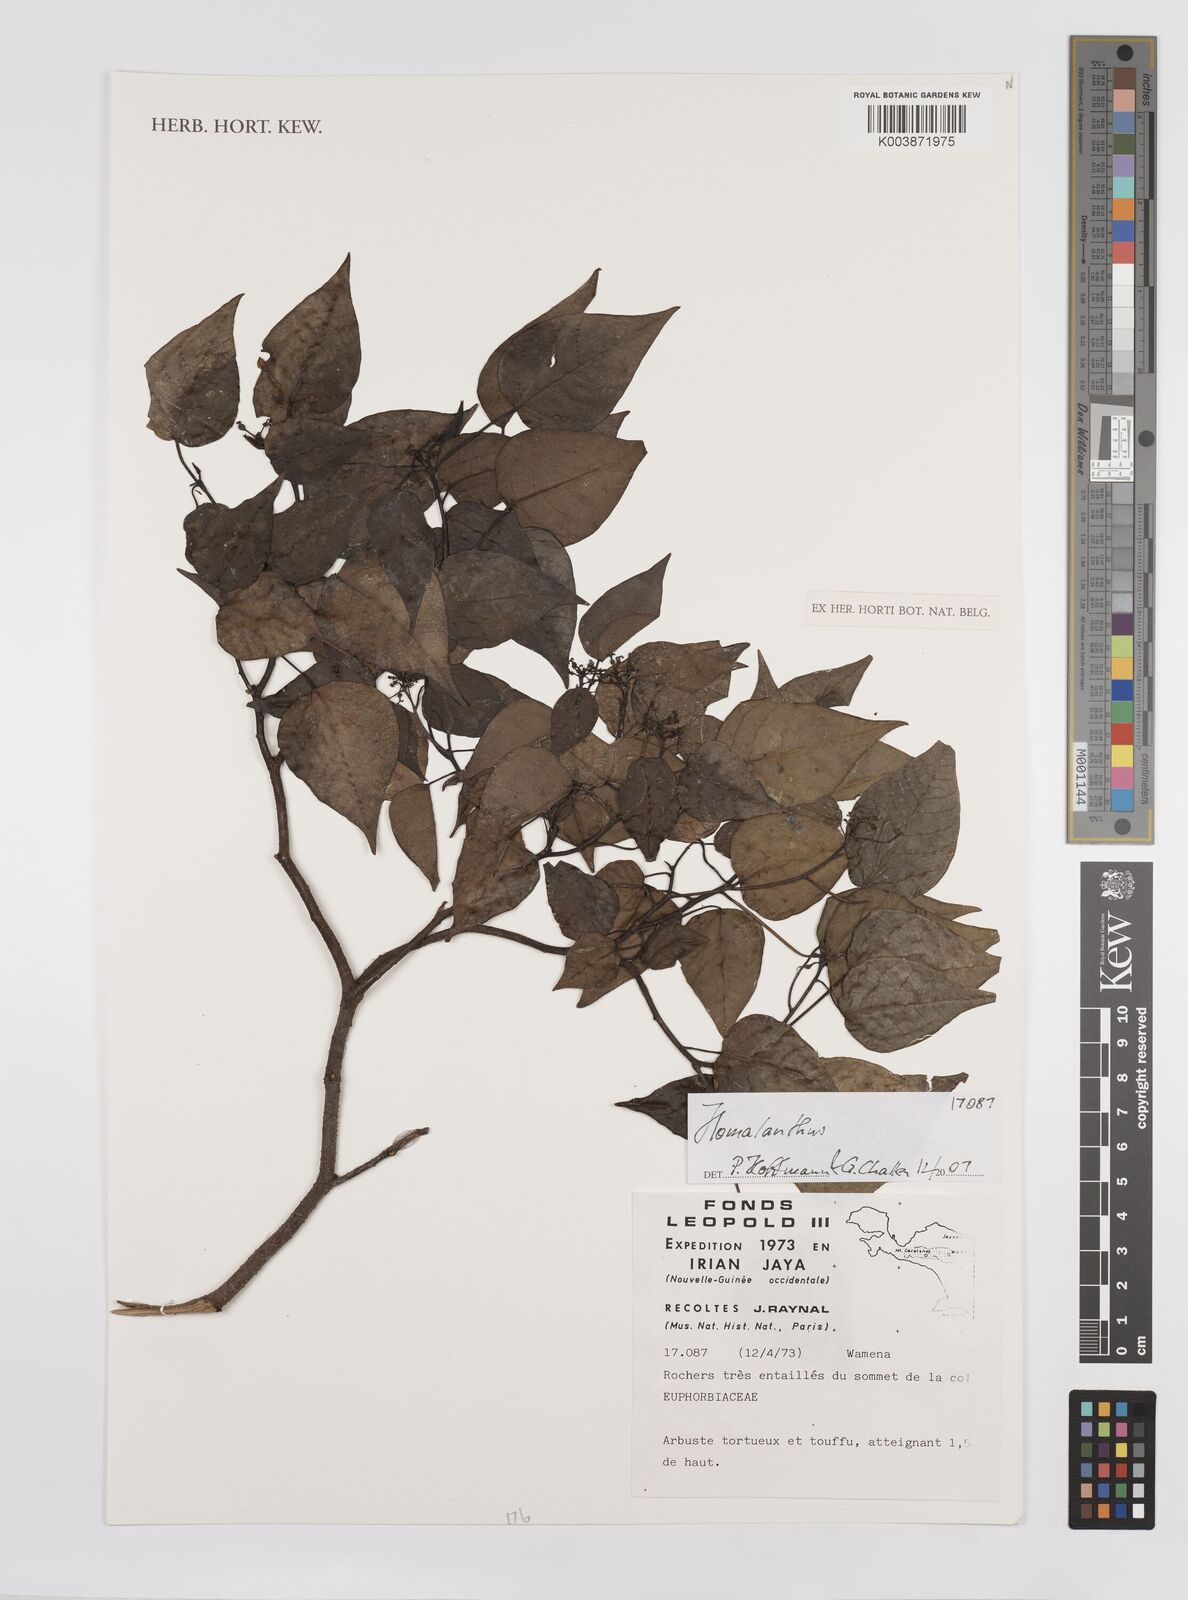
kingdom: Plantae
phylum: Tracheophyta
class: Magnoliopsida
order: Malpighiales
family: Euphorbiaceae
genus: Homalanthus
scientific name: Homalanthus
